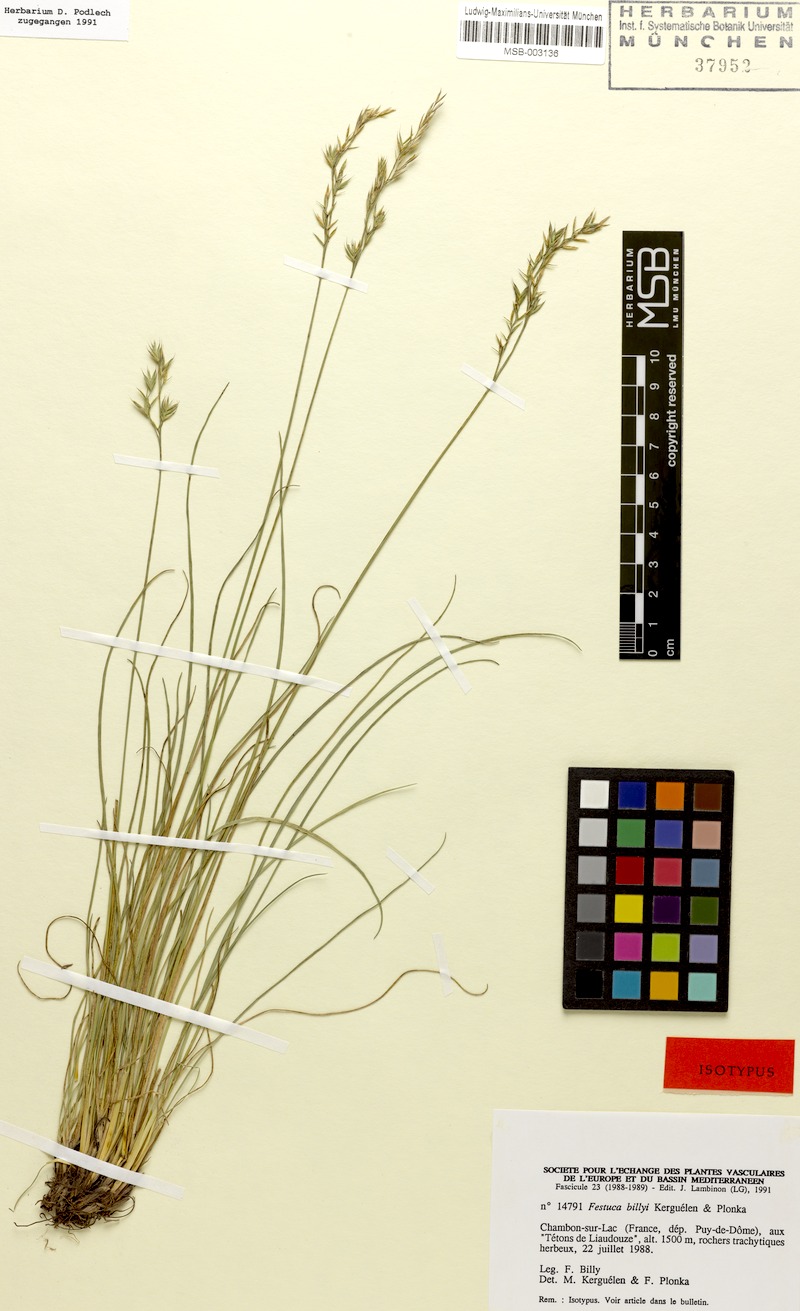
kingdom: Plantae
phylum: Tracheophyta
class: Liliopsida
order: Poales
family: Poaceae
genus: Festuca
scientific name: Festuca billyi
